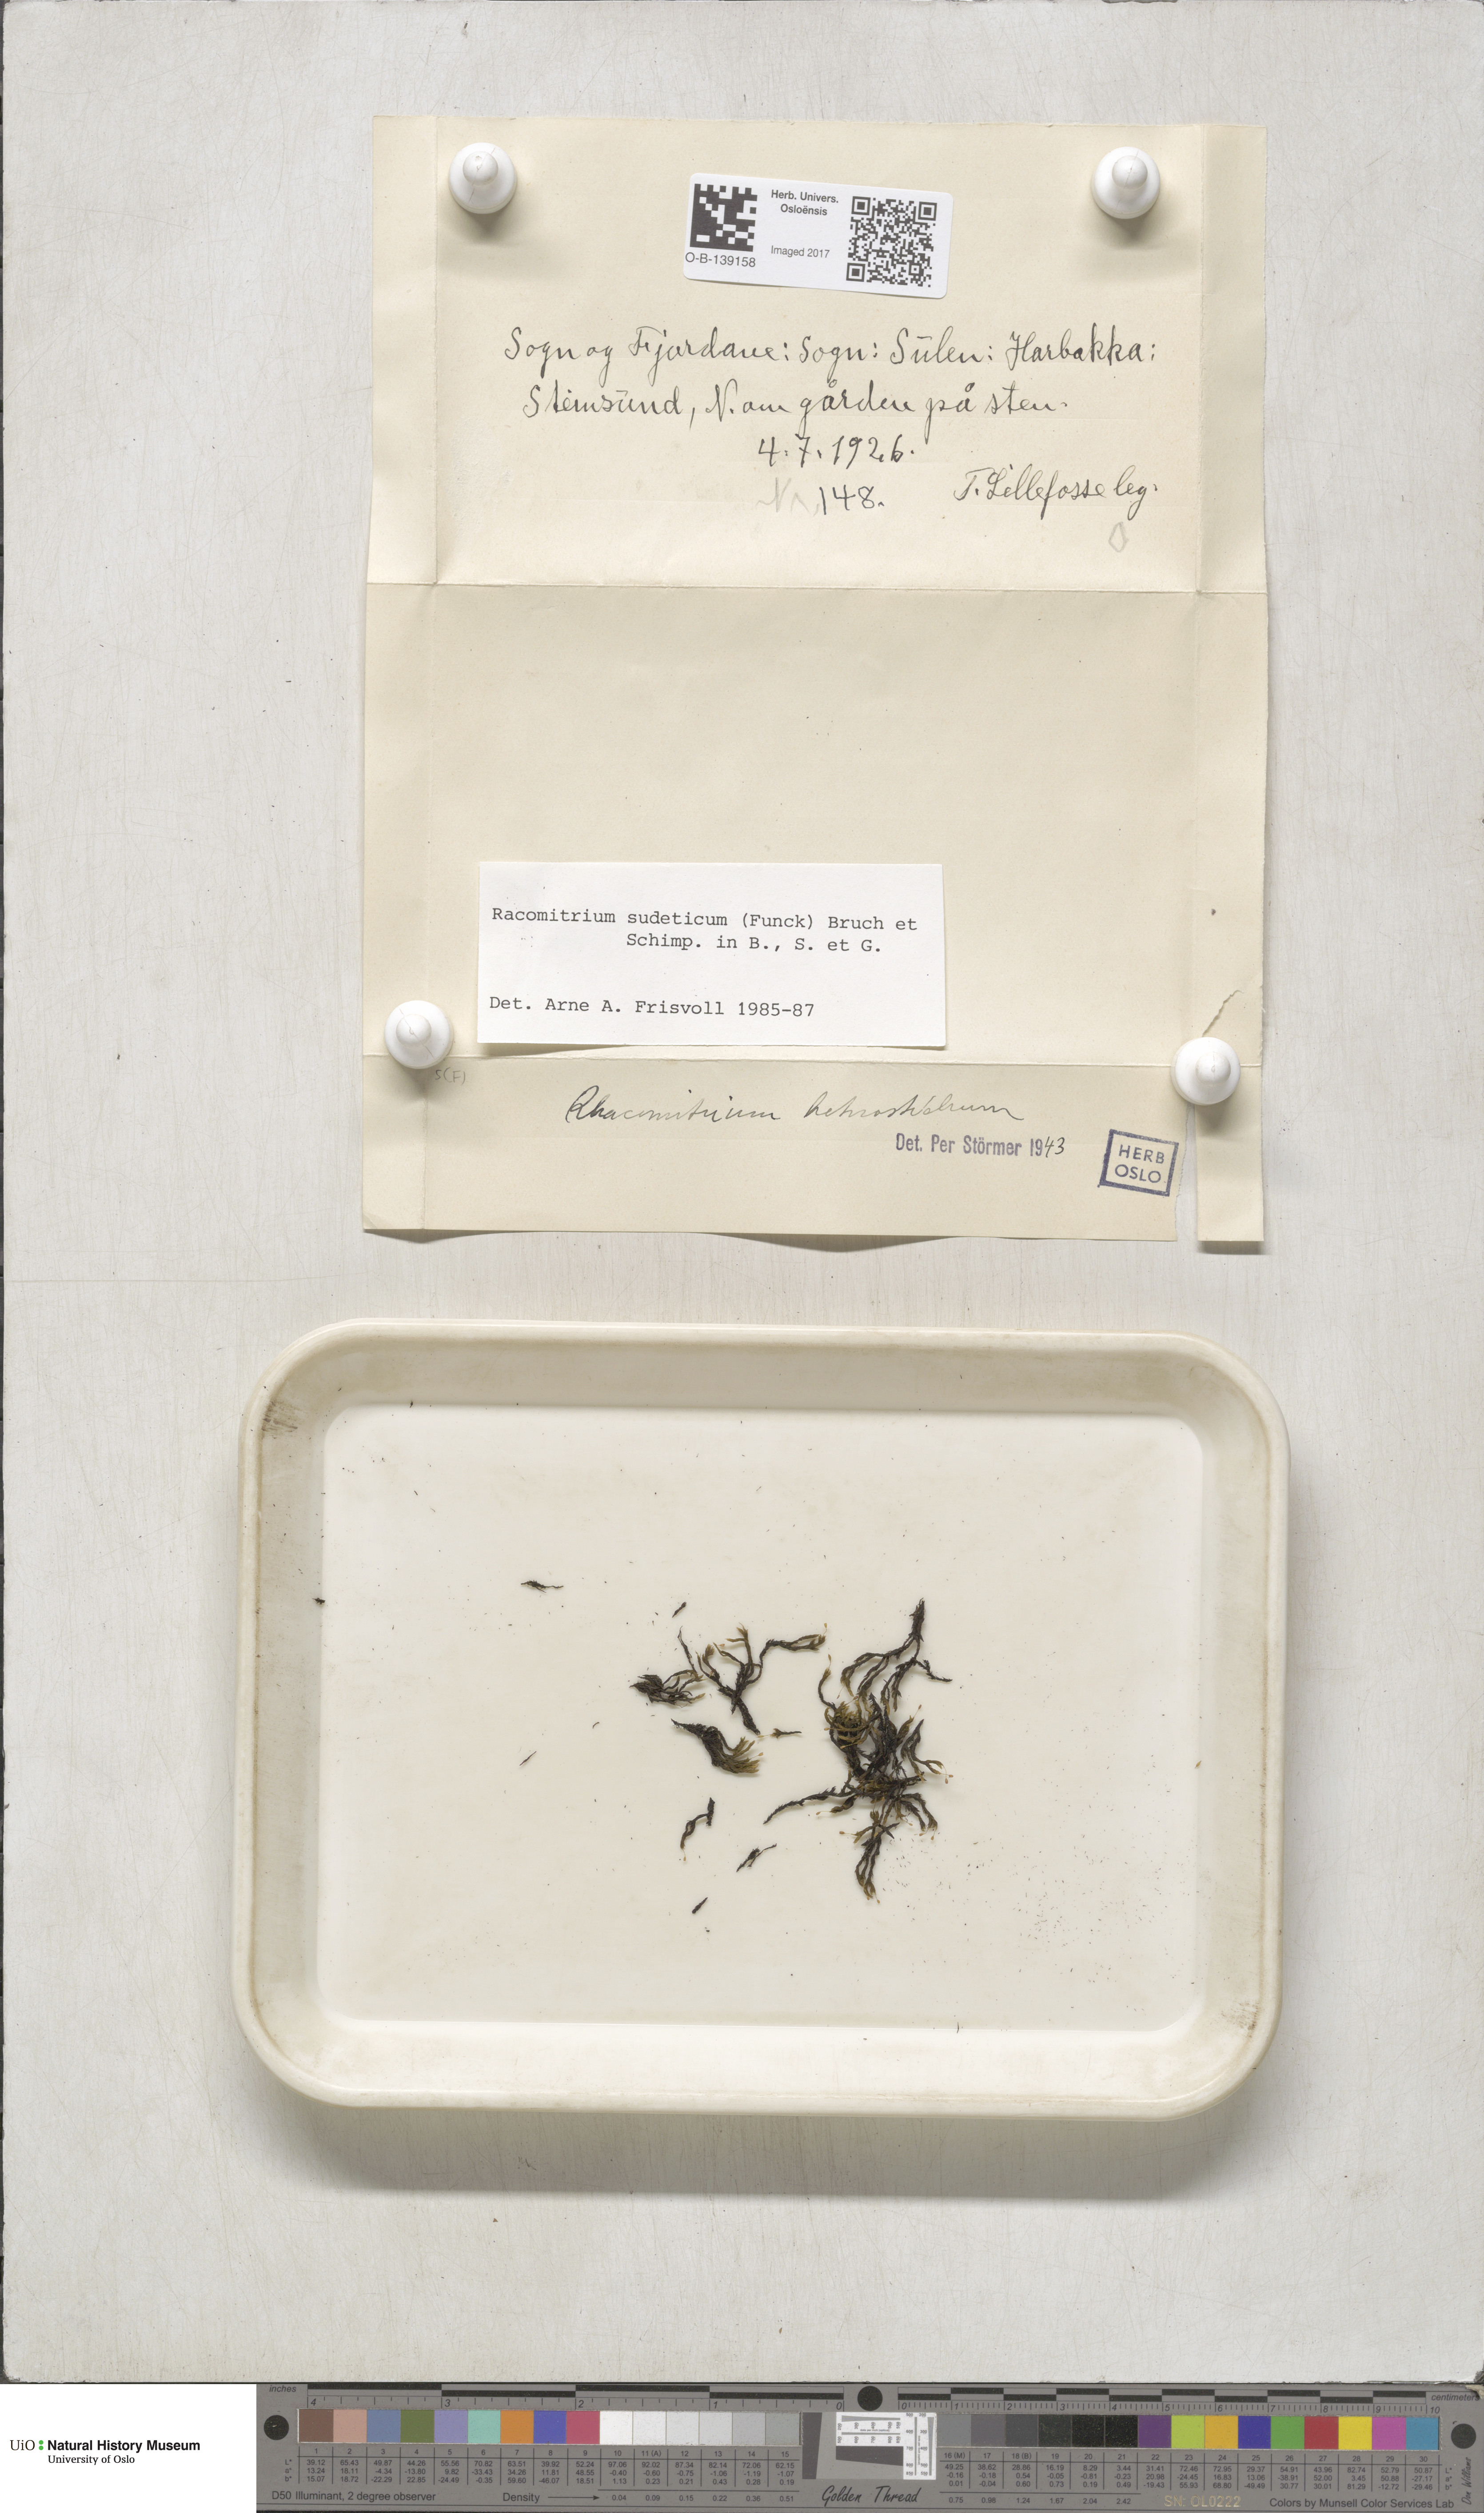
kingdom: Plantae
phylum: Bryophyta
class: Bryopsida
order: Grimmiales
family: Grimmiaceae
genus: Bucklandiella
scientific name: Bucklandiella sudetica
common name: Slender fringe-moss
